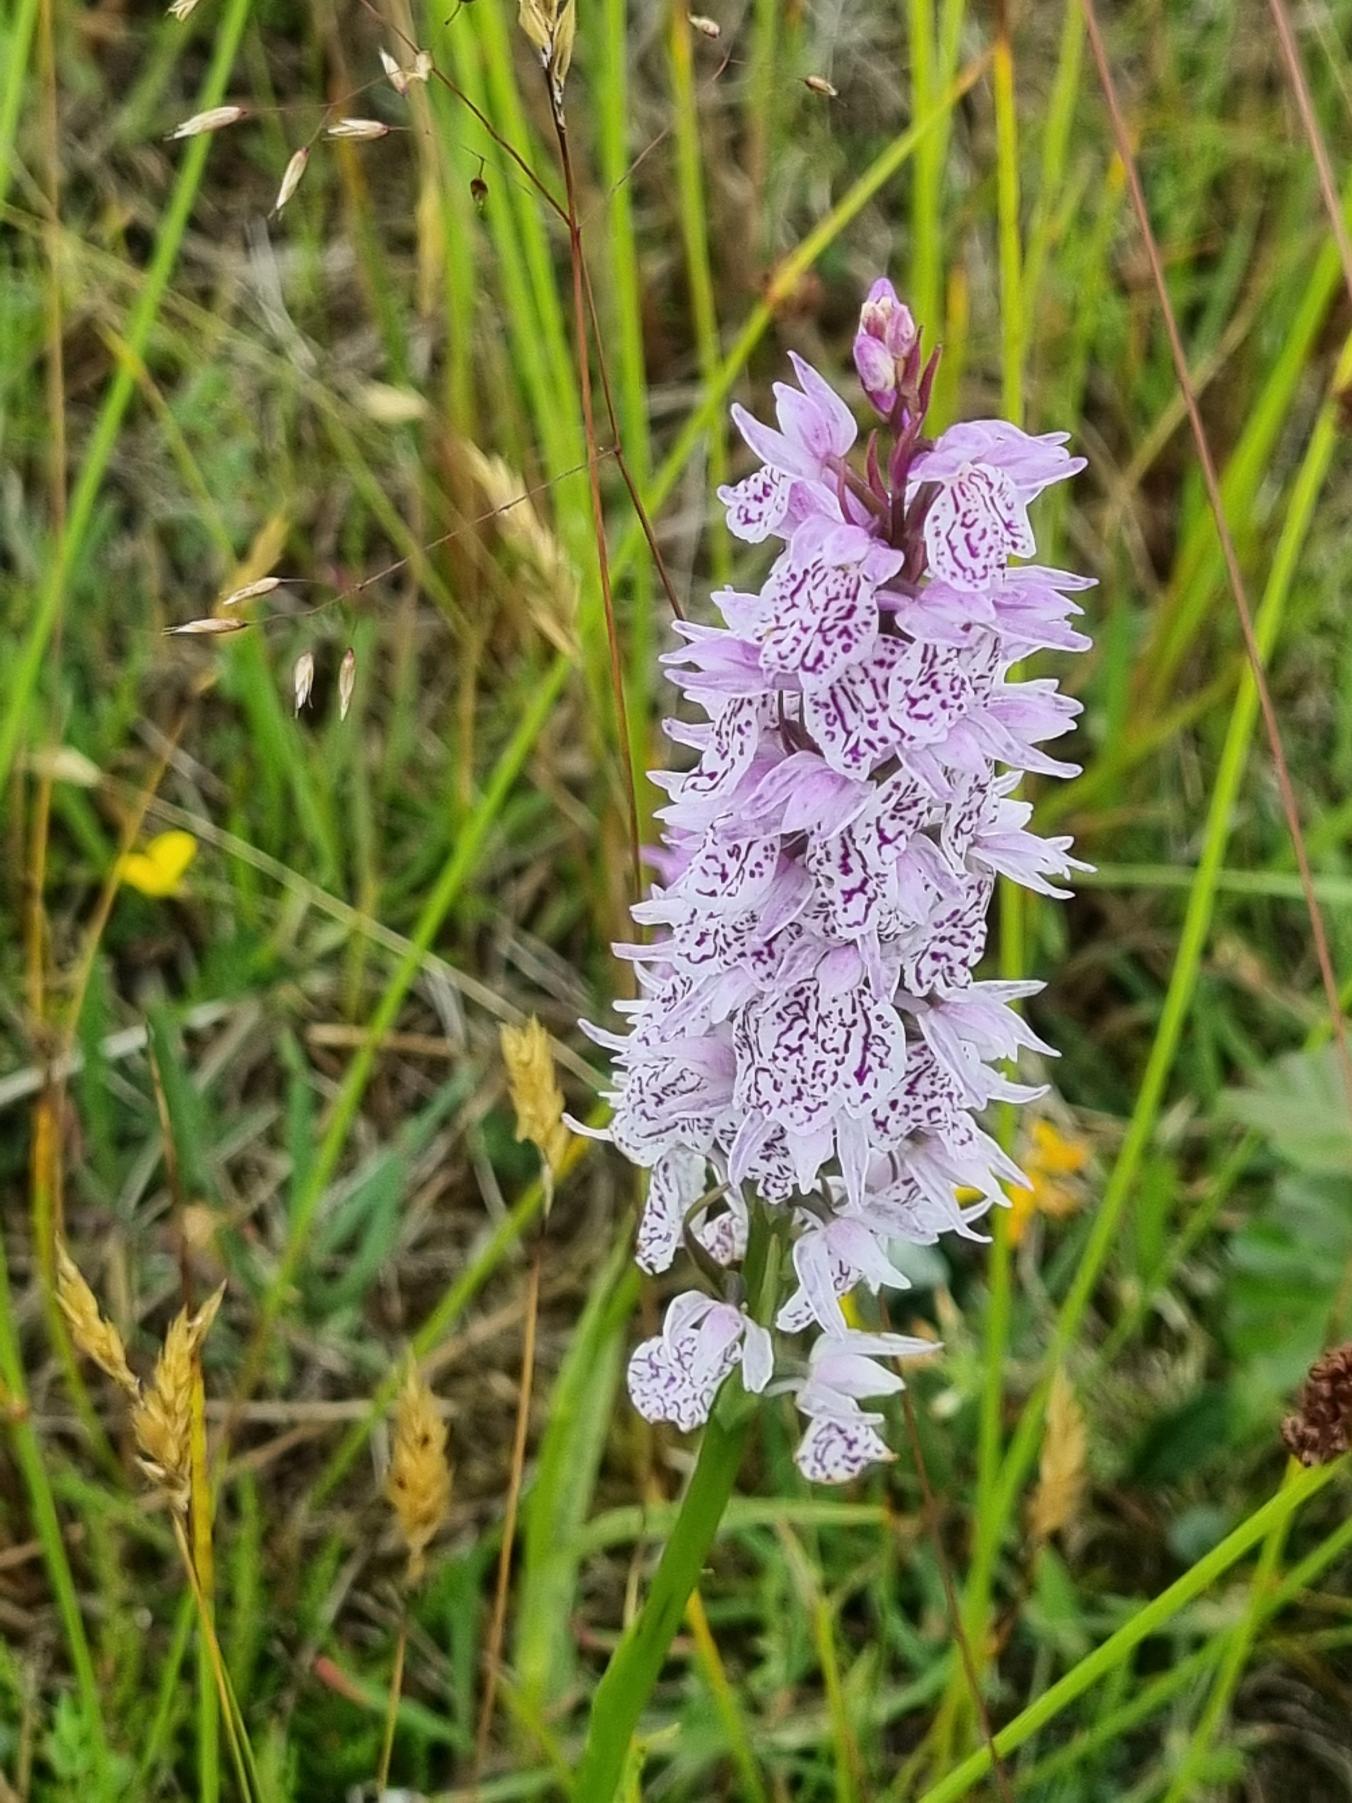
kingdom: Plantae
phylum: Tracheophyta
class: Liliopsida
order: Asparagales
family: Orchidaceae
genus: Dactylorhiza
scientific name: Dactylorhiza maculata
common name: Plettet gøgeurt
